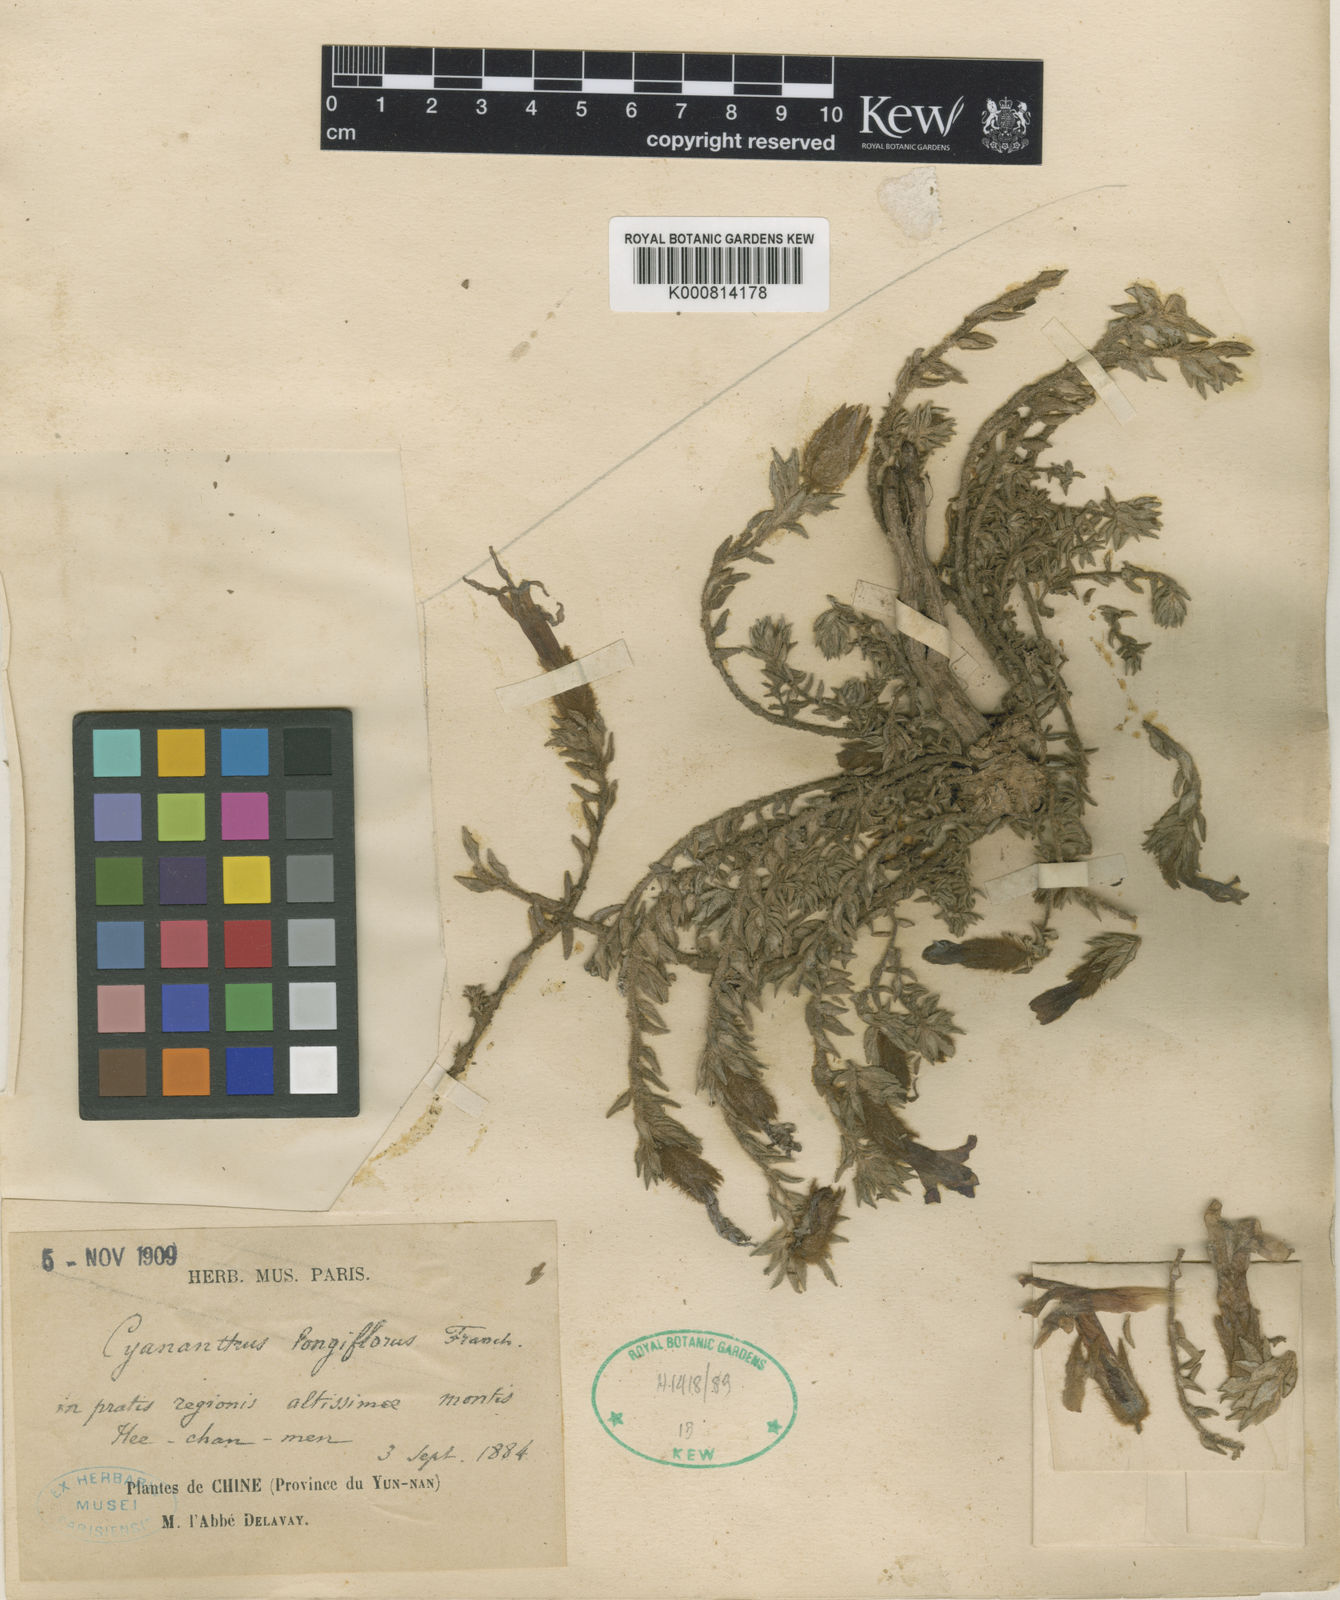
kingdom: Plantae
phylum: Tracheophyta
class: Magnoliopsida
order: Asterales
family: Campanulaceae
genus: Cyananthus
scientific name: Cyananthus longiflorus
